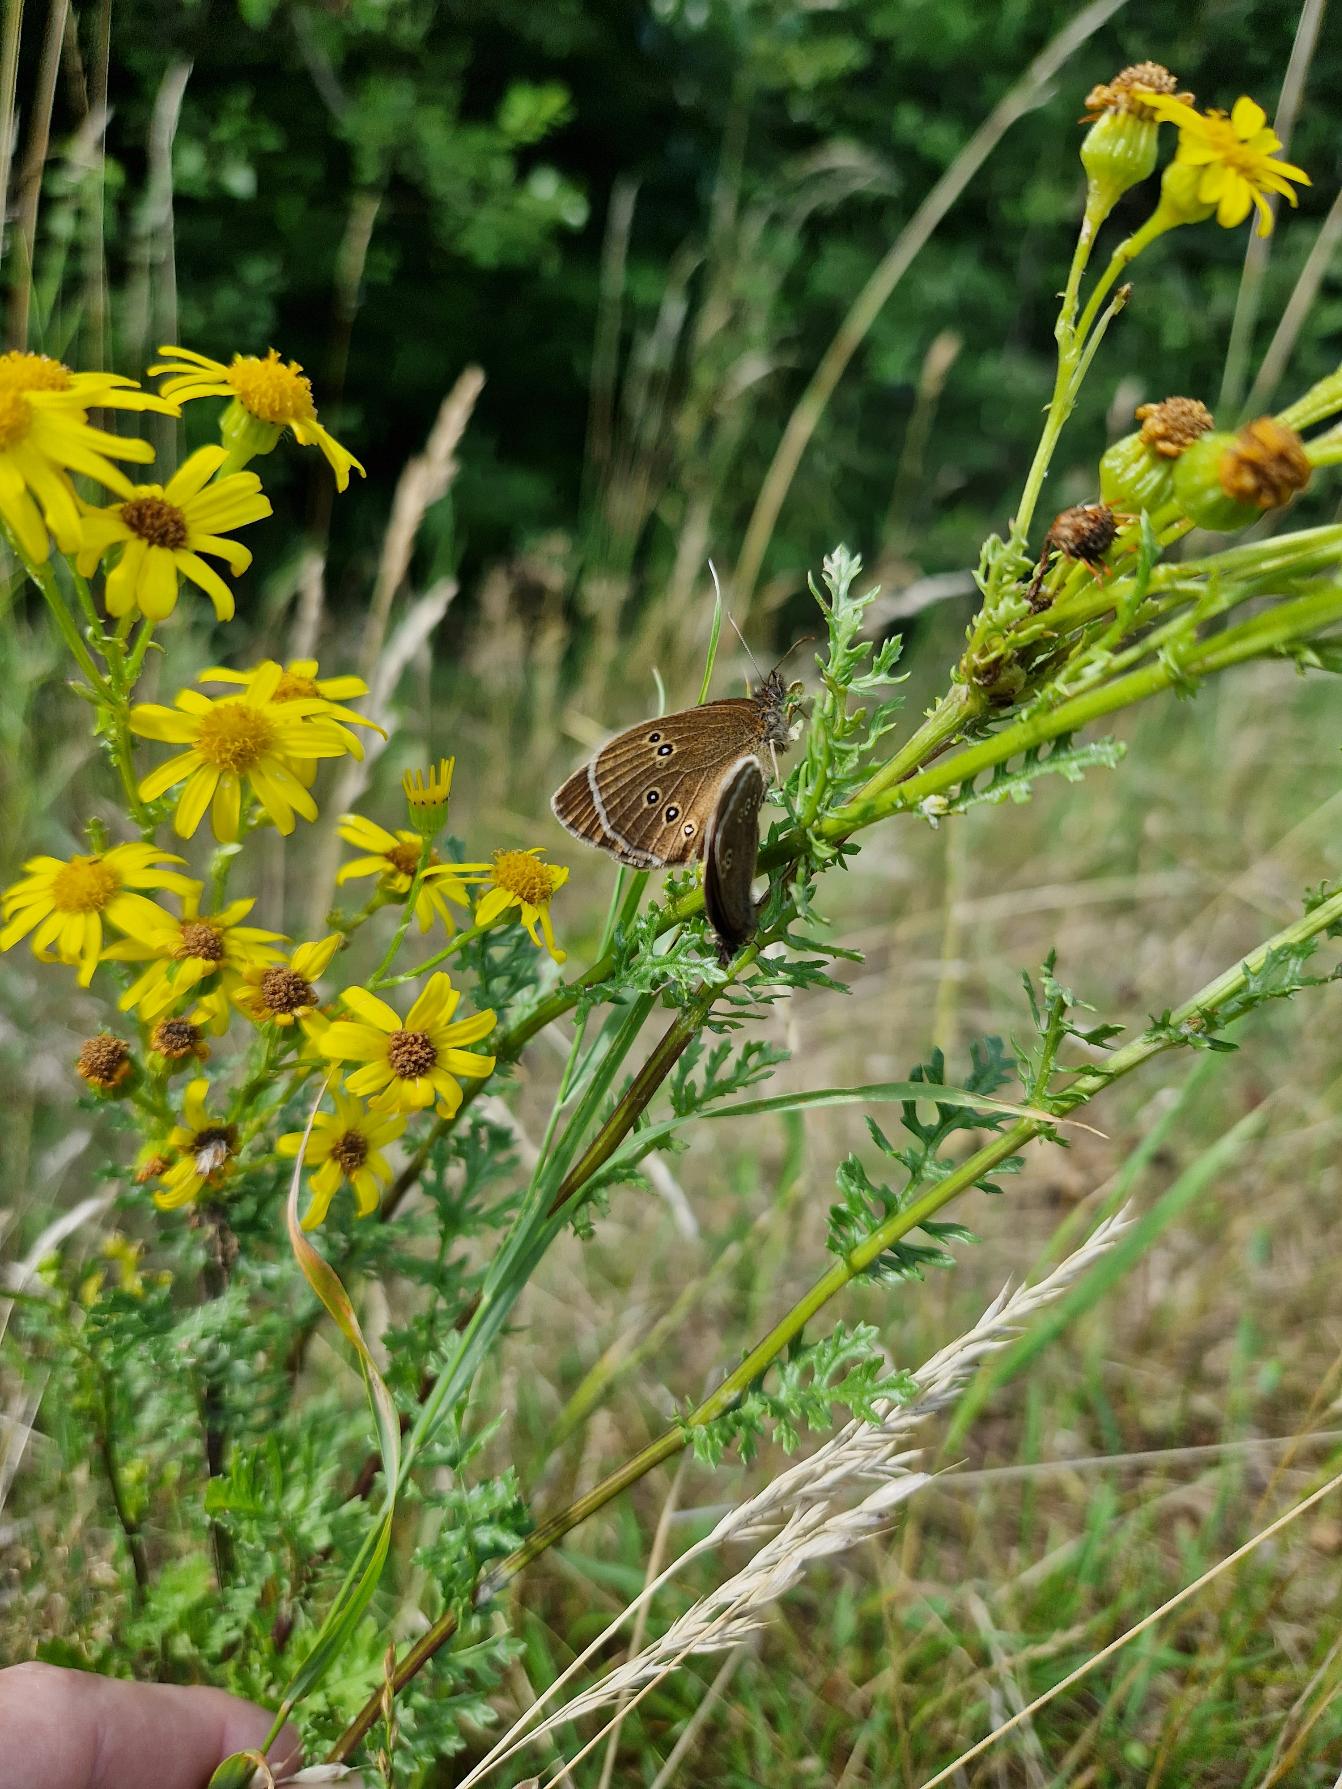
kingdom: Animalia
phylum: Arthropoda
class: Insecta
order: Lepidoptera
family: Nymphalidae
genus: Aphantopus
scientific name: Aphantopus hyperantus
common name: Engrandøje
